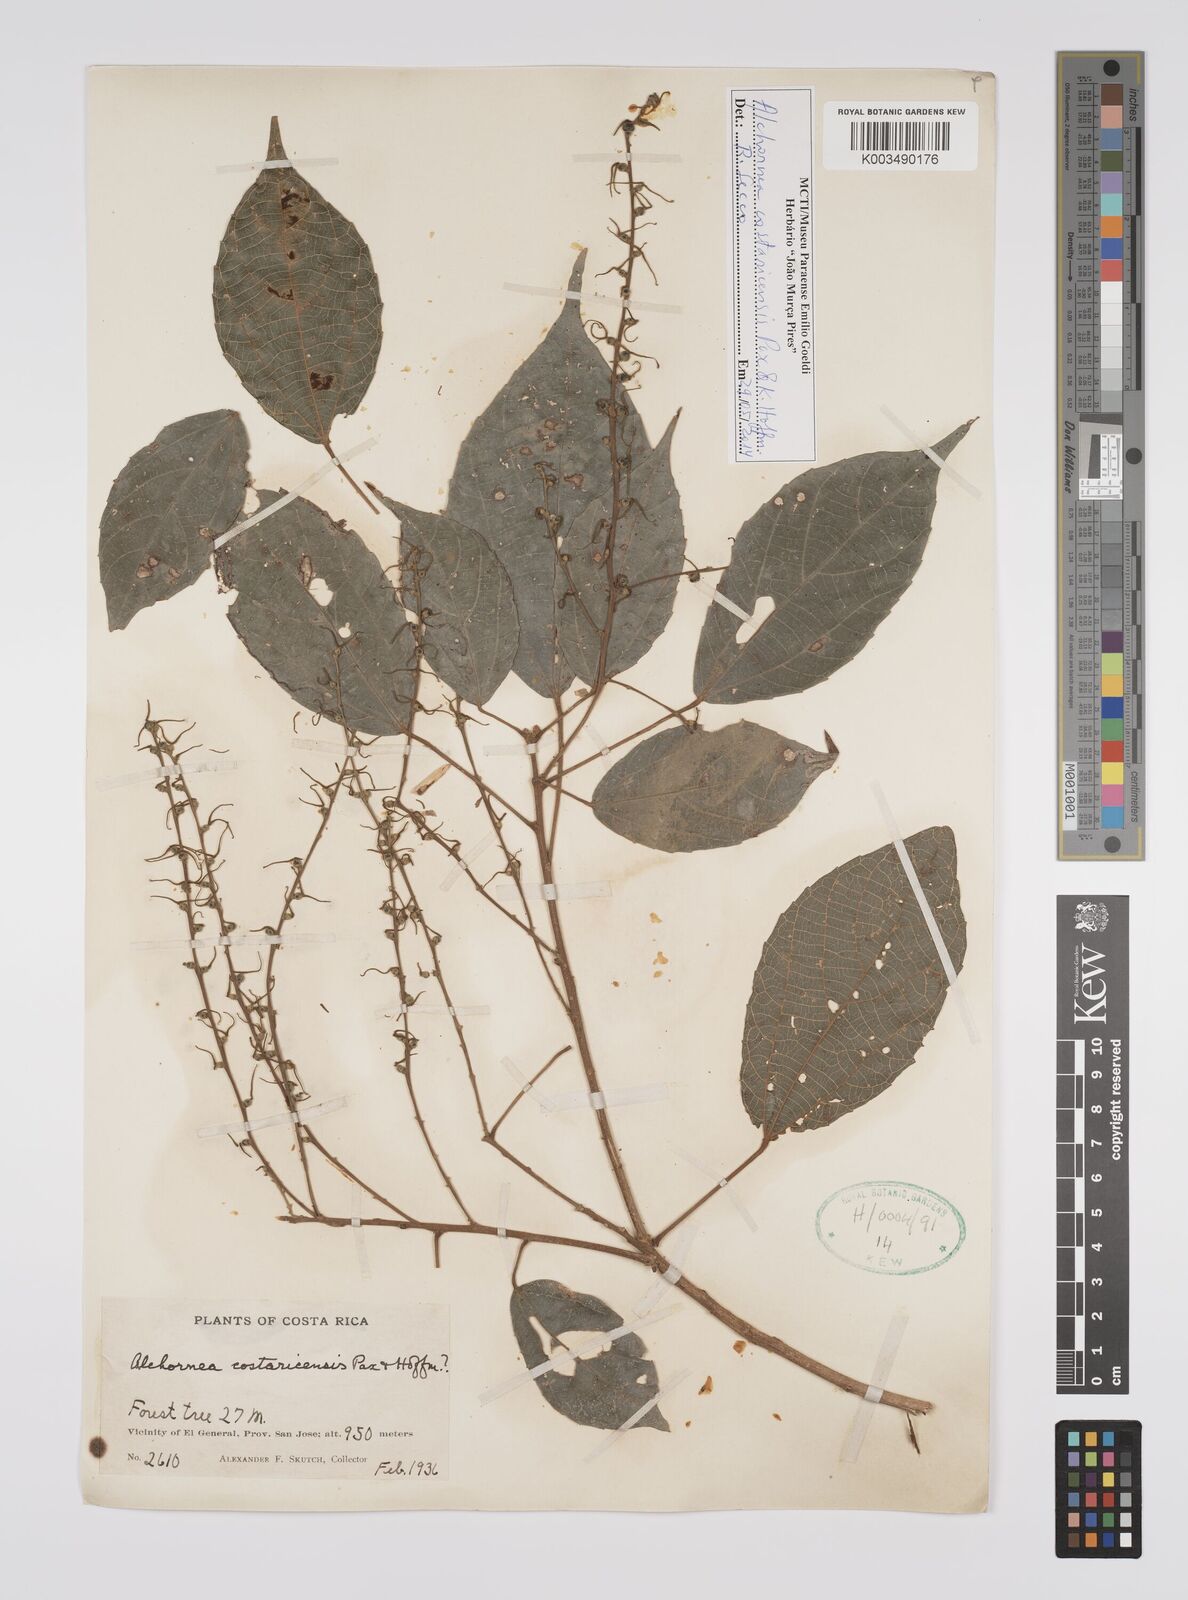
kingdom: Plantae
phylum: Tracheophyta
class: Magnoliopsida
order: Malpighiales
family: Euphorbiaceae
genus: Alchornea
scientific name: Alchornea costaricensis
